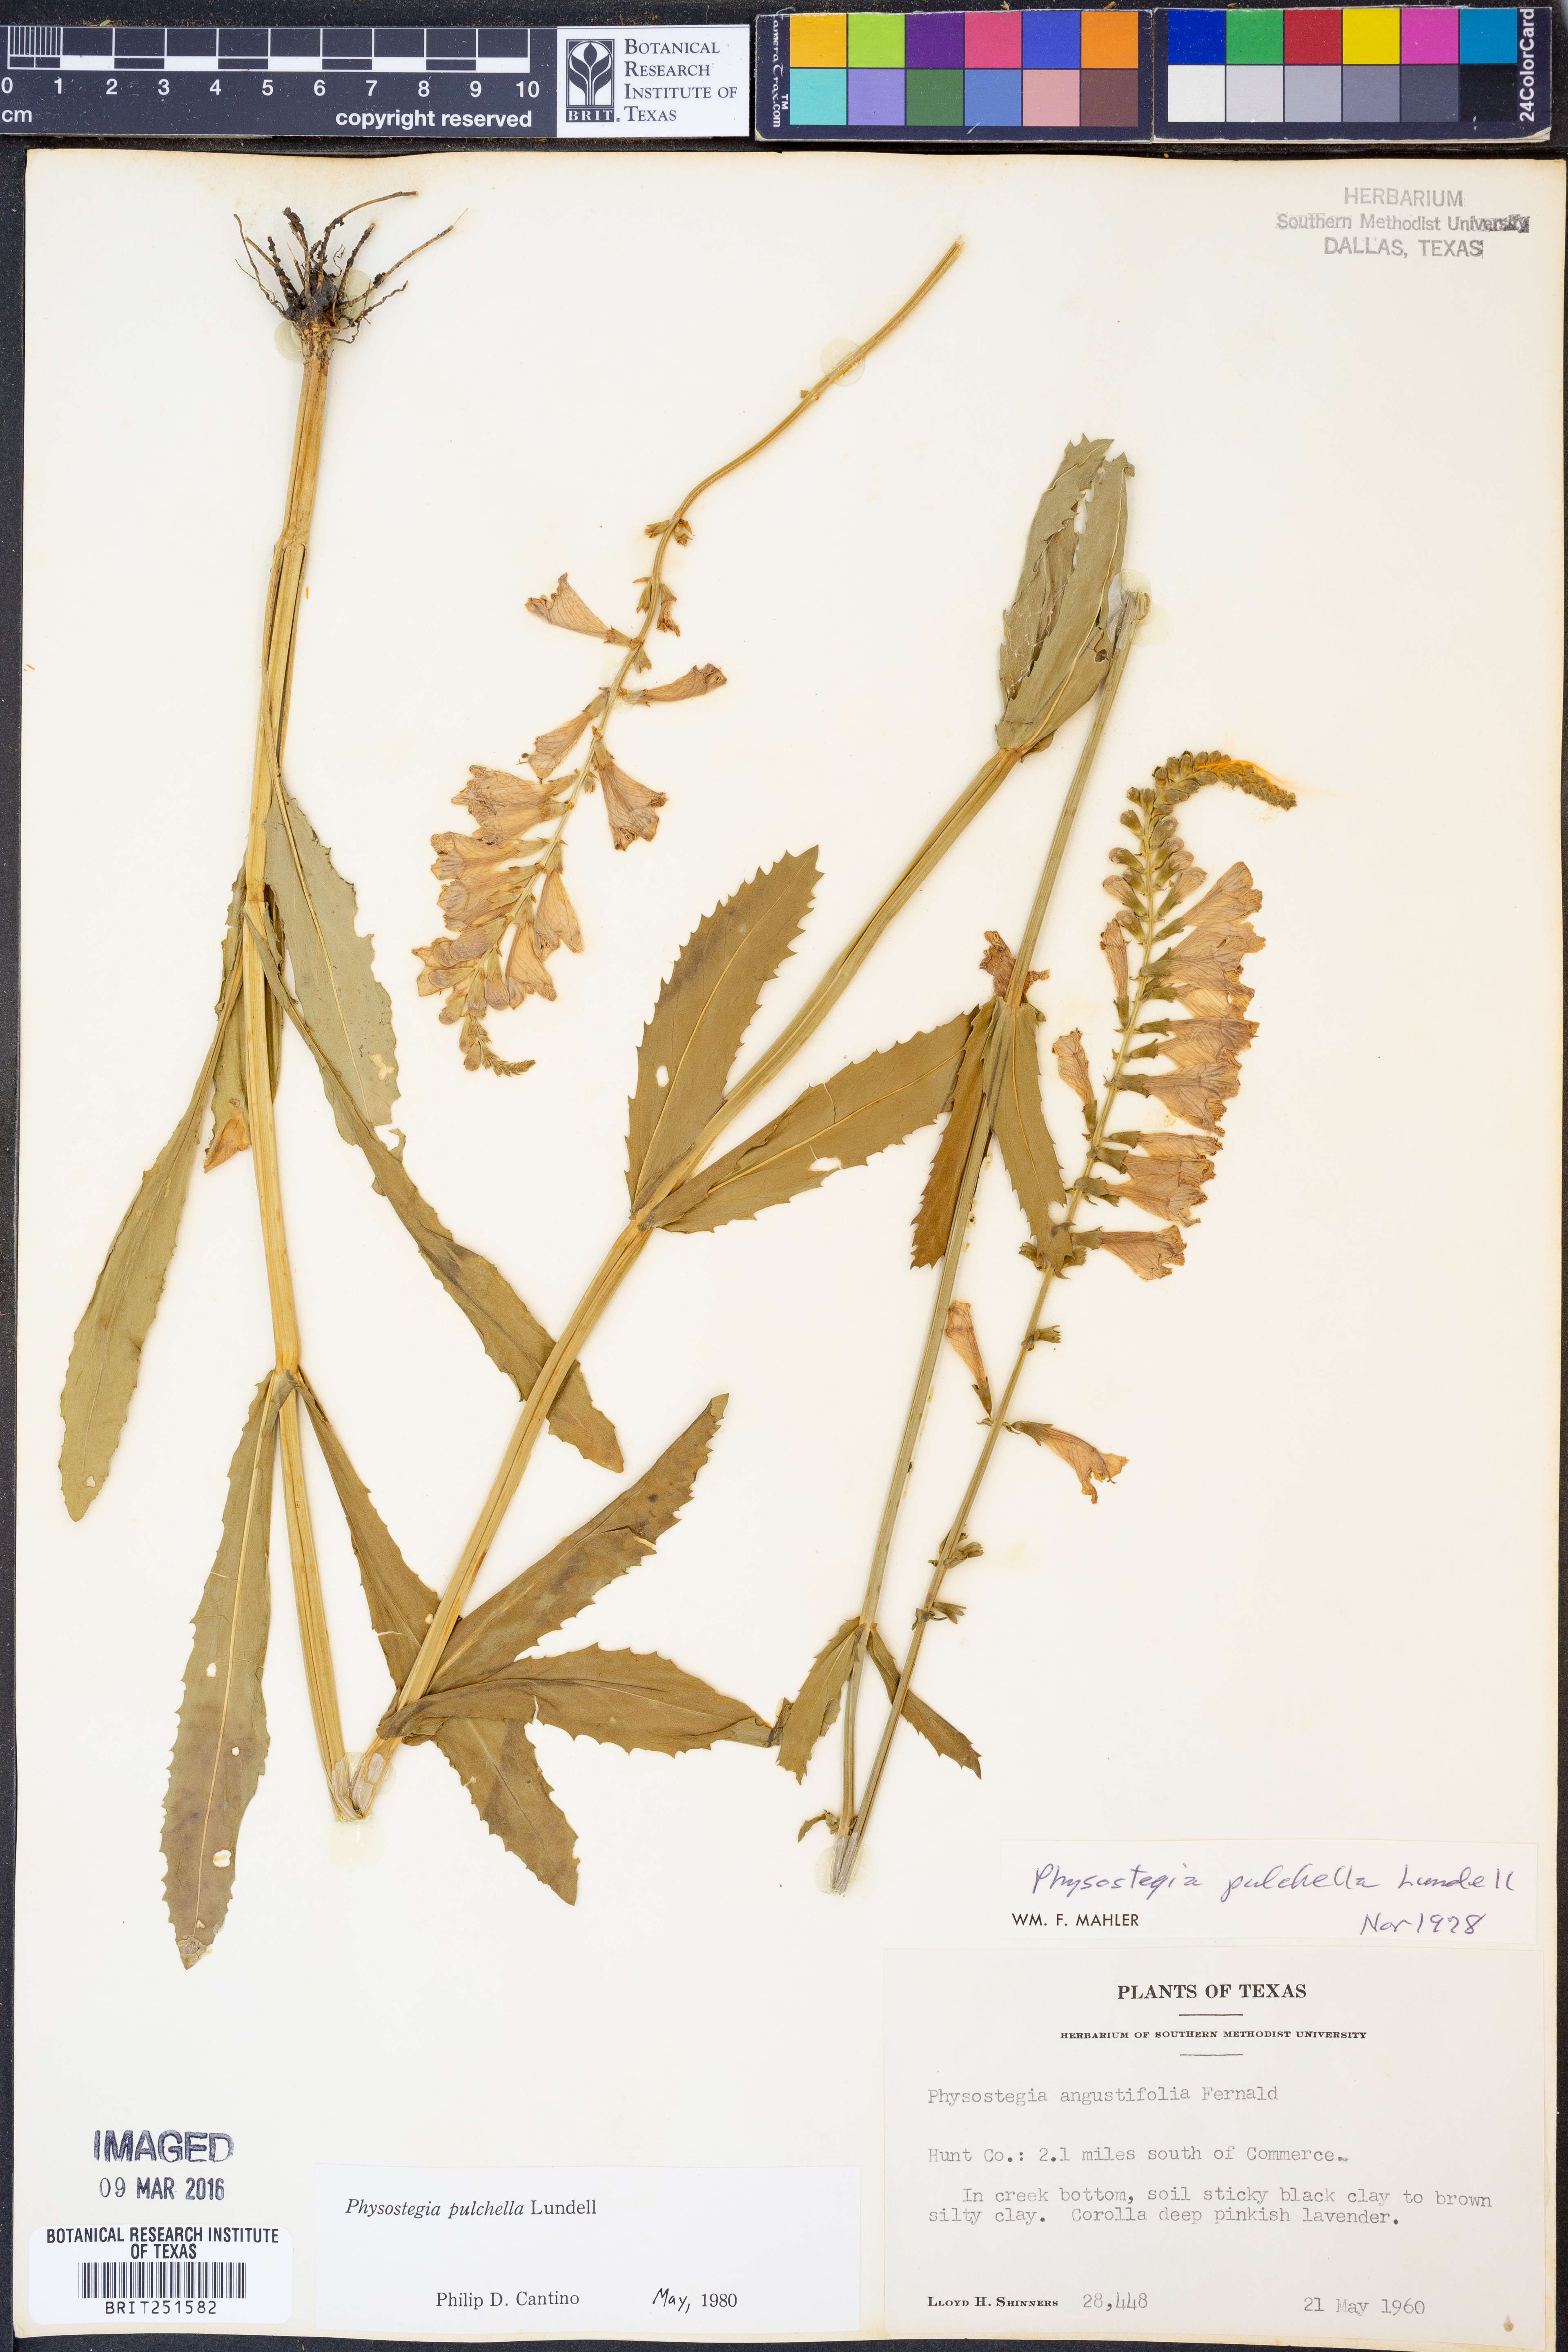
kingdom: Plantae
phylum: Tracheophyta
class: Magnoliopsida
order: Lamiales
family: Lamiaceae
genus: Physostegia
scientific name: Physostegia pulchella
